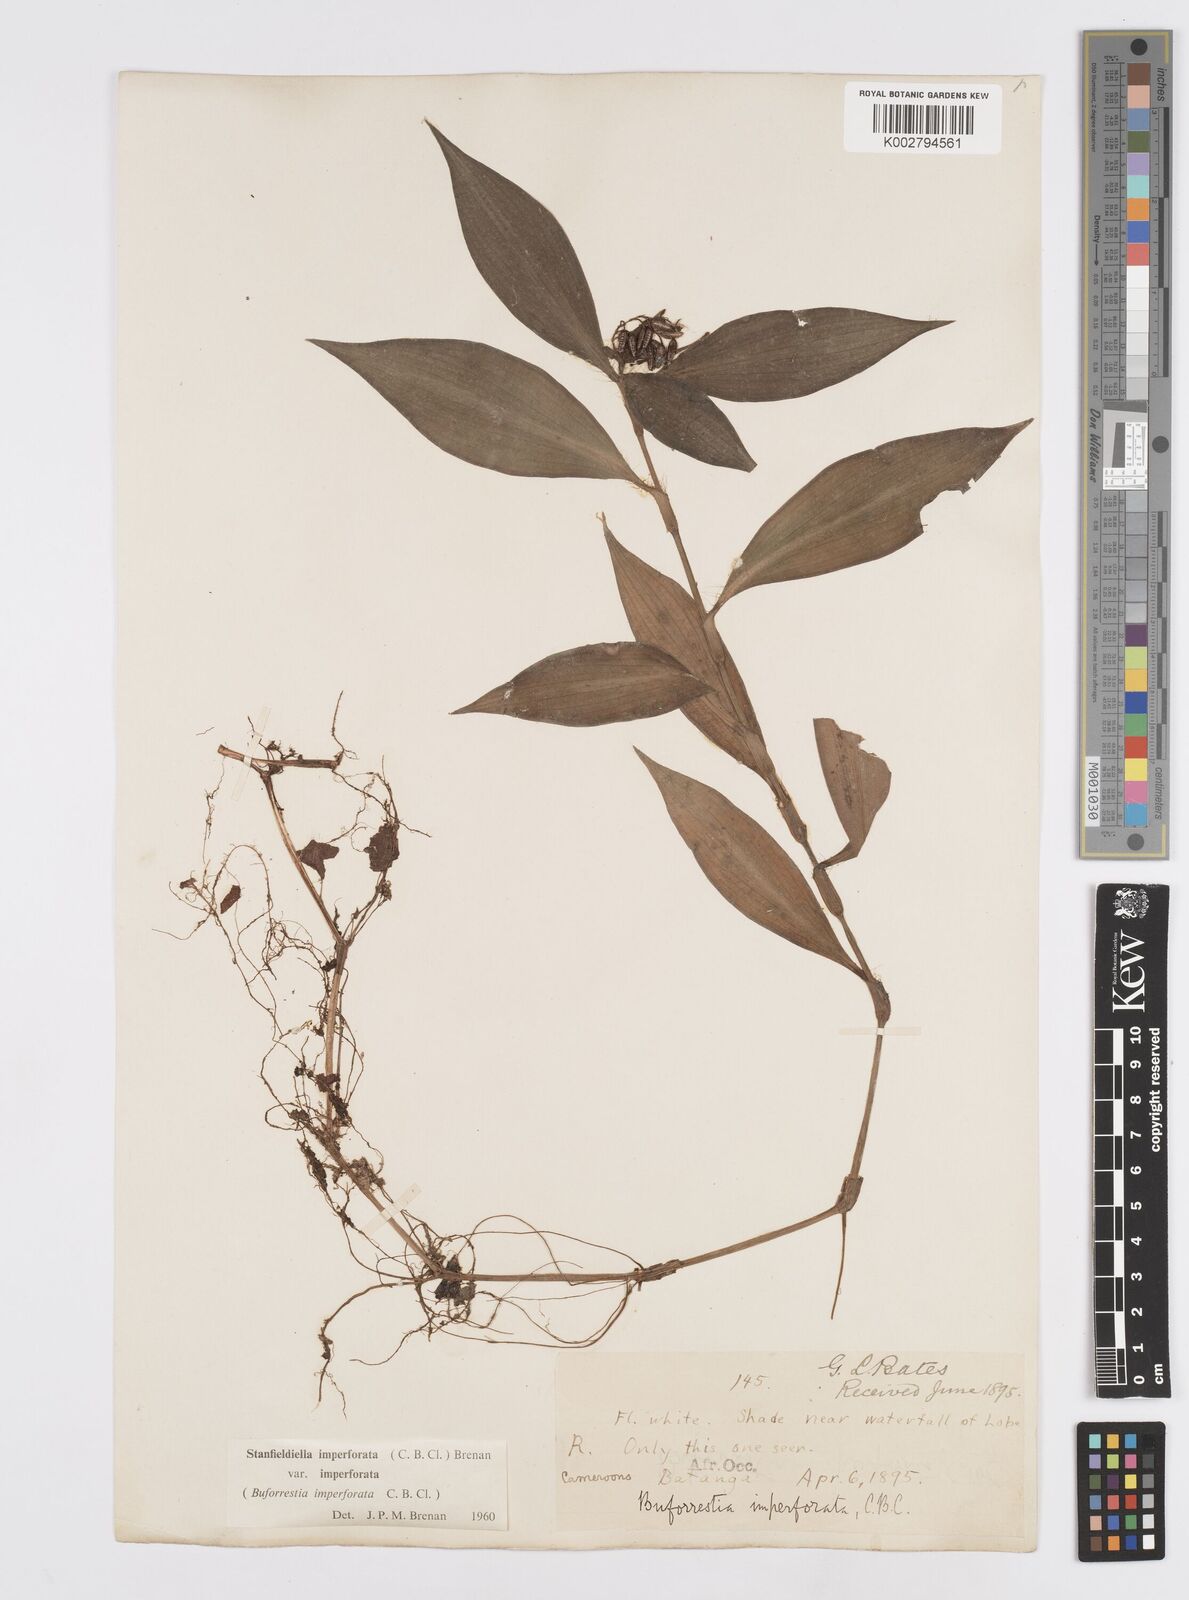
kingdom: Plantae
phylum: Tracheophyta
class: Liliopsida
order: Commelinales
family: Commelinaceae
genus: Stanfieldiella
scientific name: Stanfieldiella imperforata
